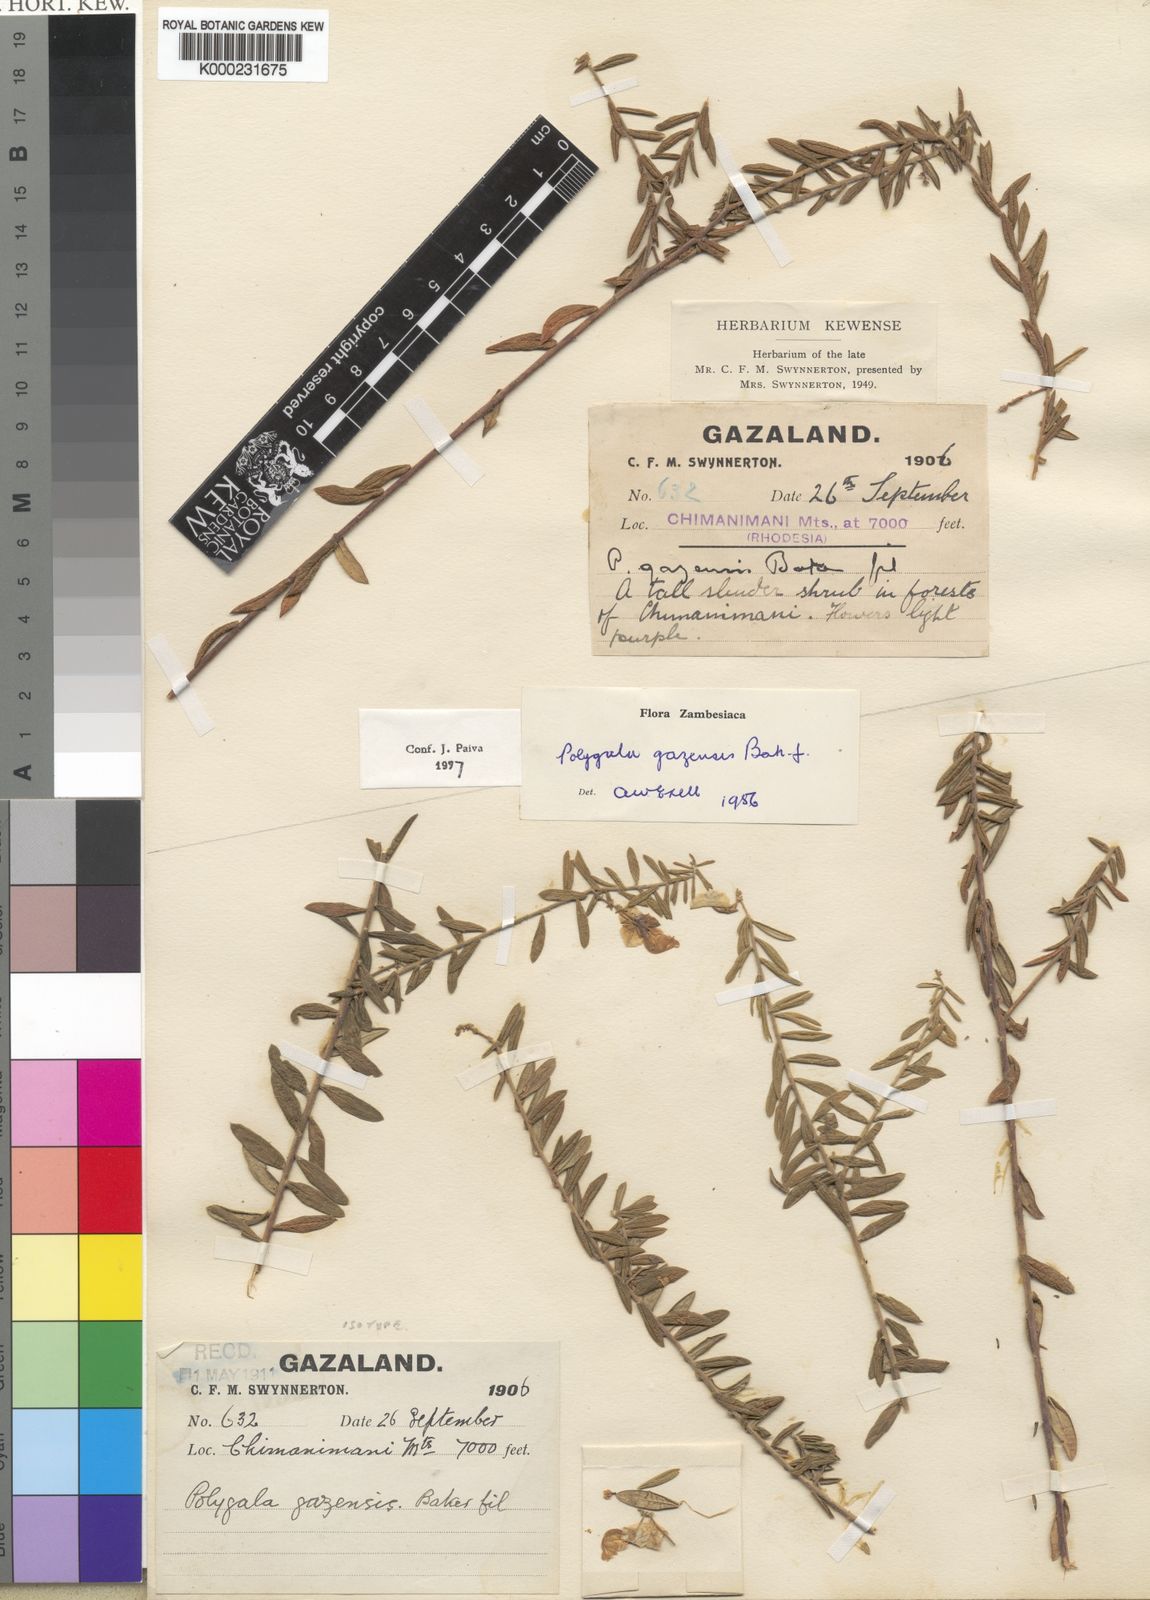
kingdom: Plantae
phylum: Tracheophyta
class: Magnoliopsida
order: Fabales
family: Polygalaceae
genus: Polygala
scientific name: Polygala gazensis
